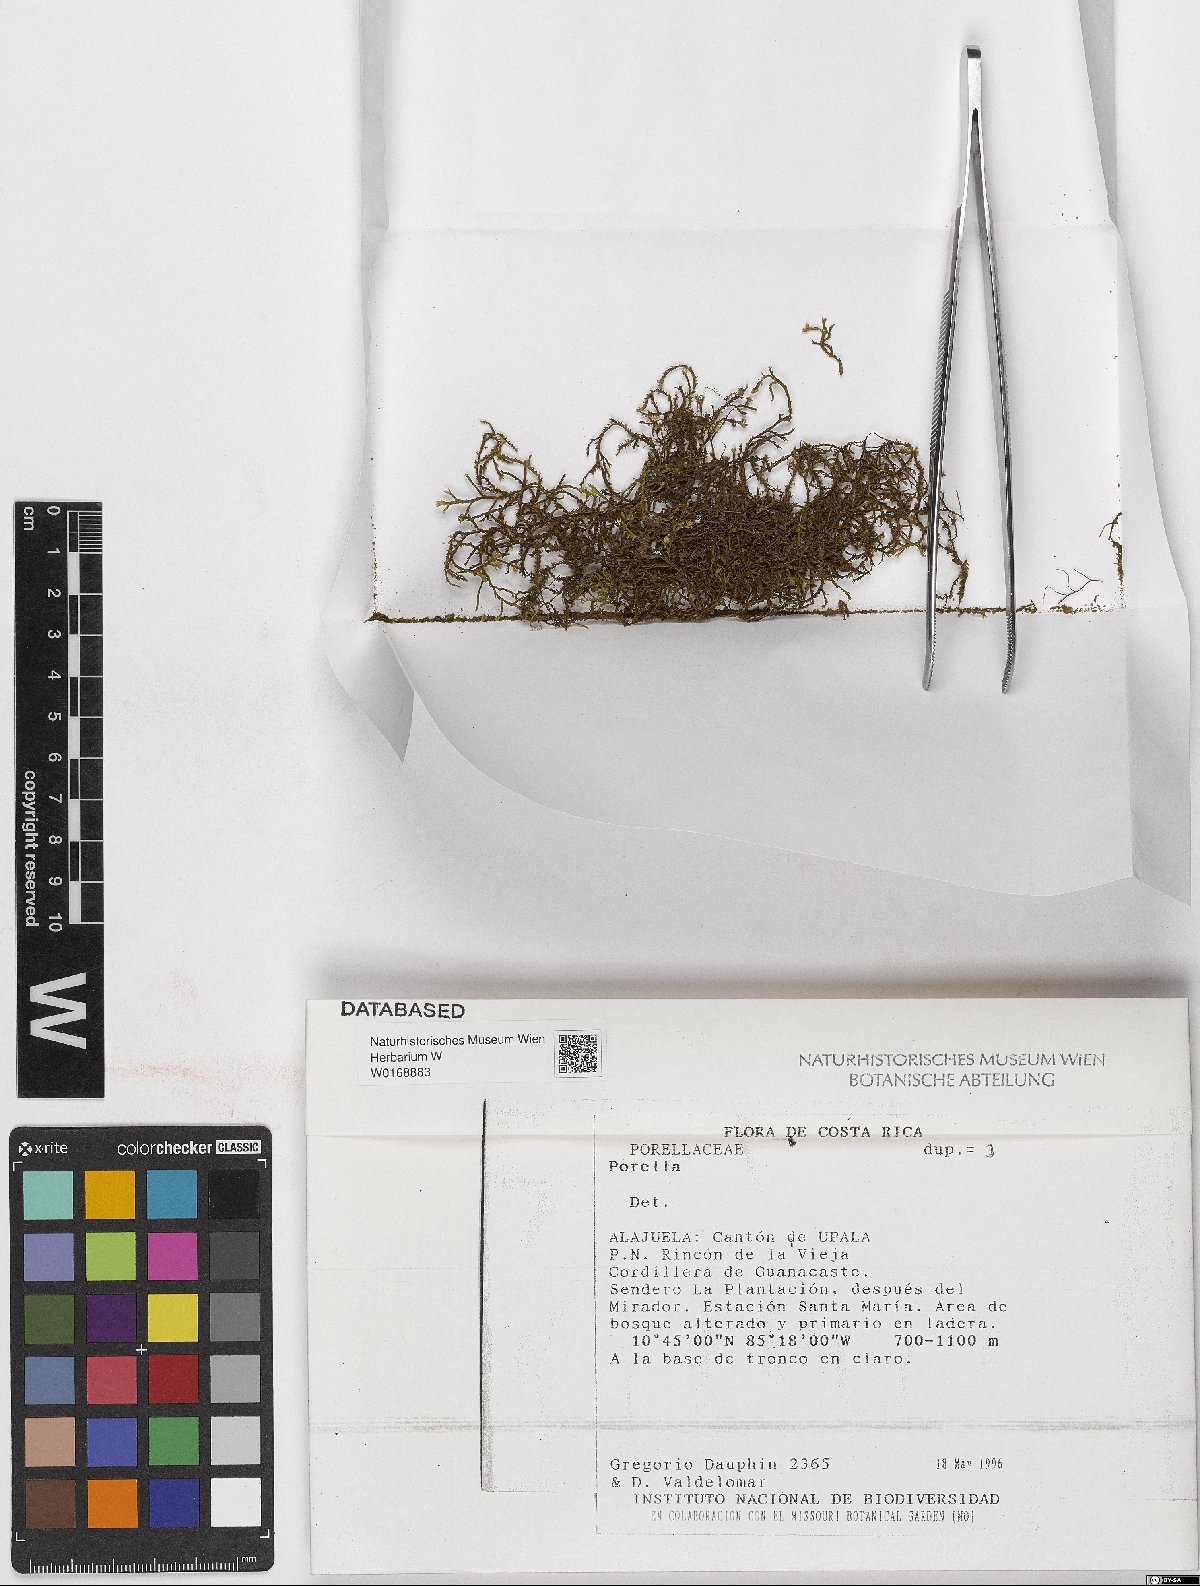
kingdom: Plantae
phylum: Marchantiophyta
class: Jungermanniopsida
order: Porellales
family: Porellaceae
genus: Porella
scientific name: Porella
